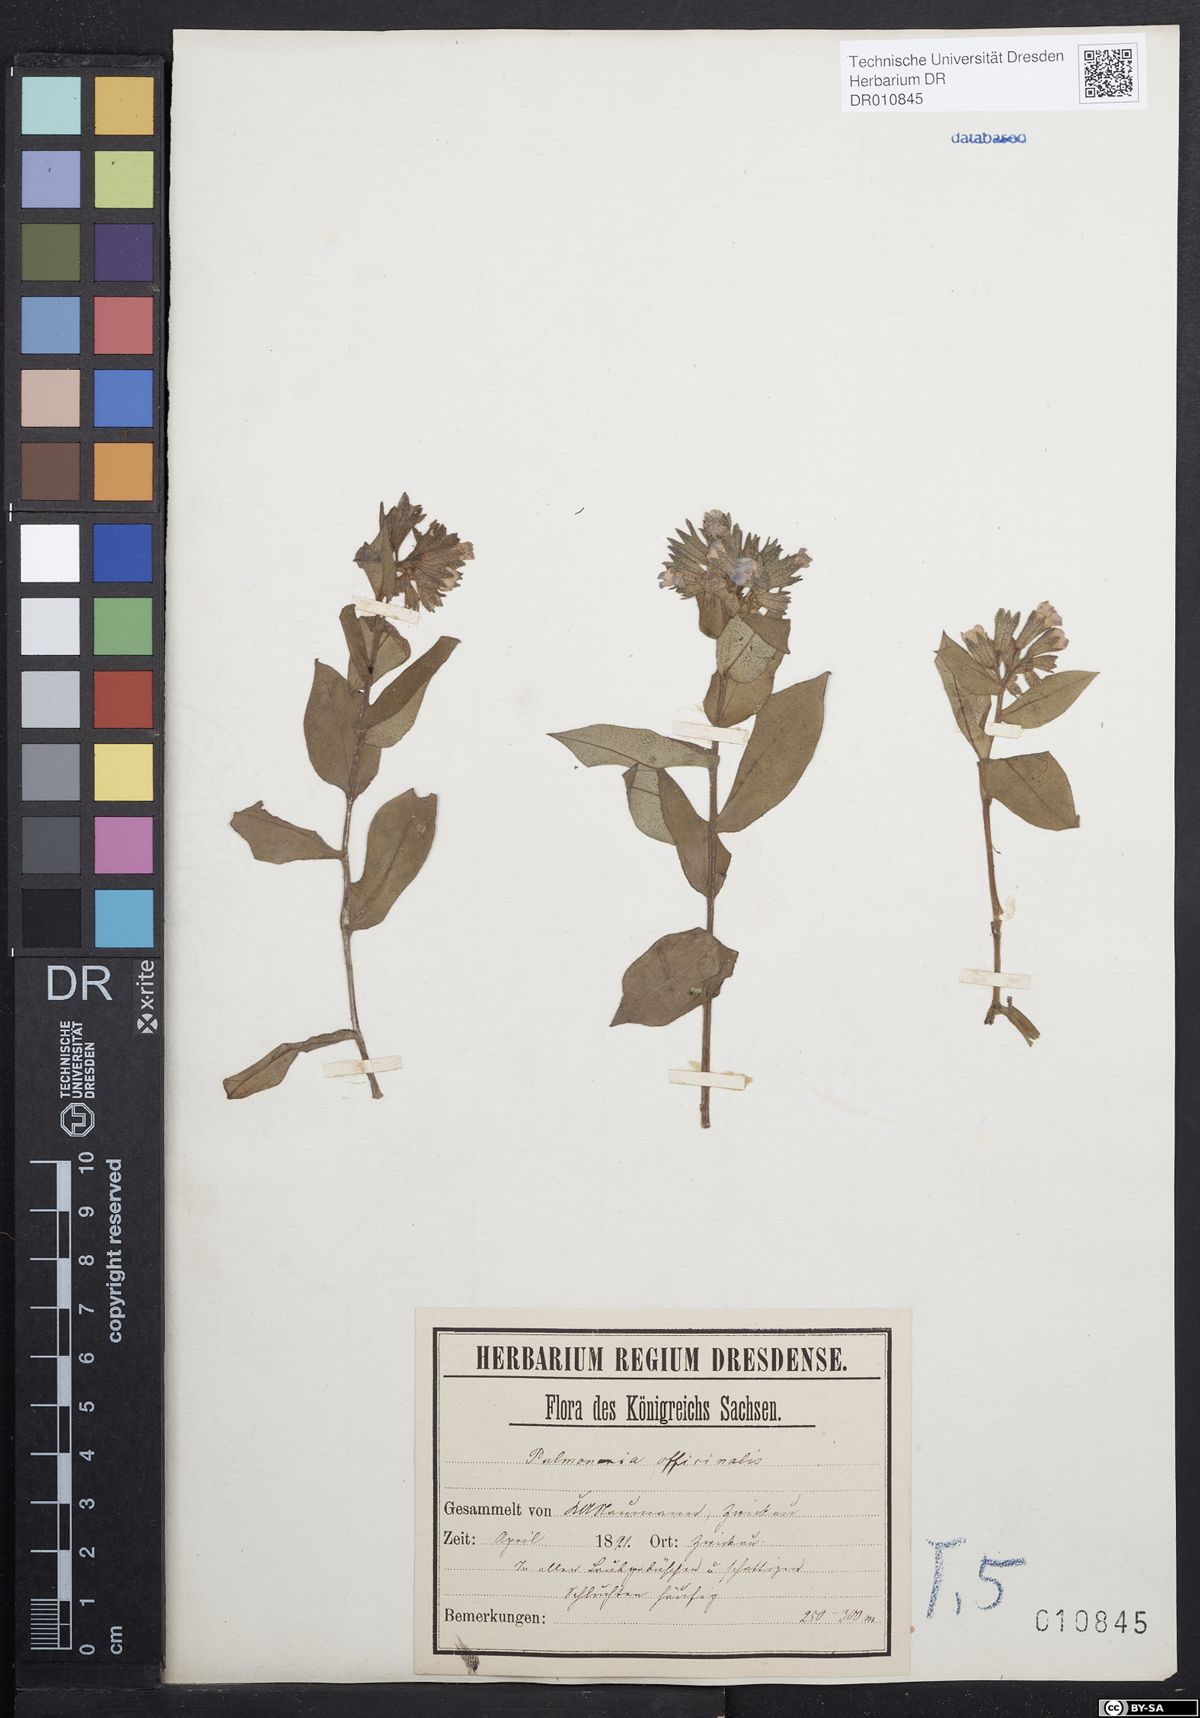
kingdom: Plantae
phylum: Tracheophyta
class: Magnoliopsida
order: Boraginales
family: Boraginaceae
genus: Pulmonaria
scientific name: Pulmonaria officinalis
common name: Lungwort
